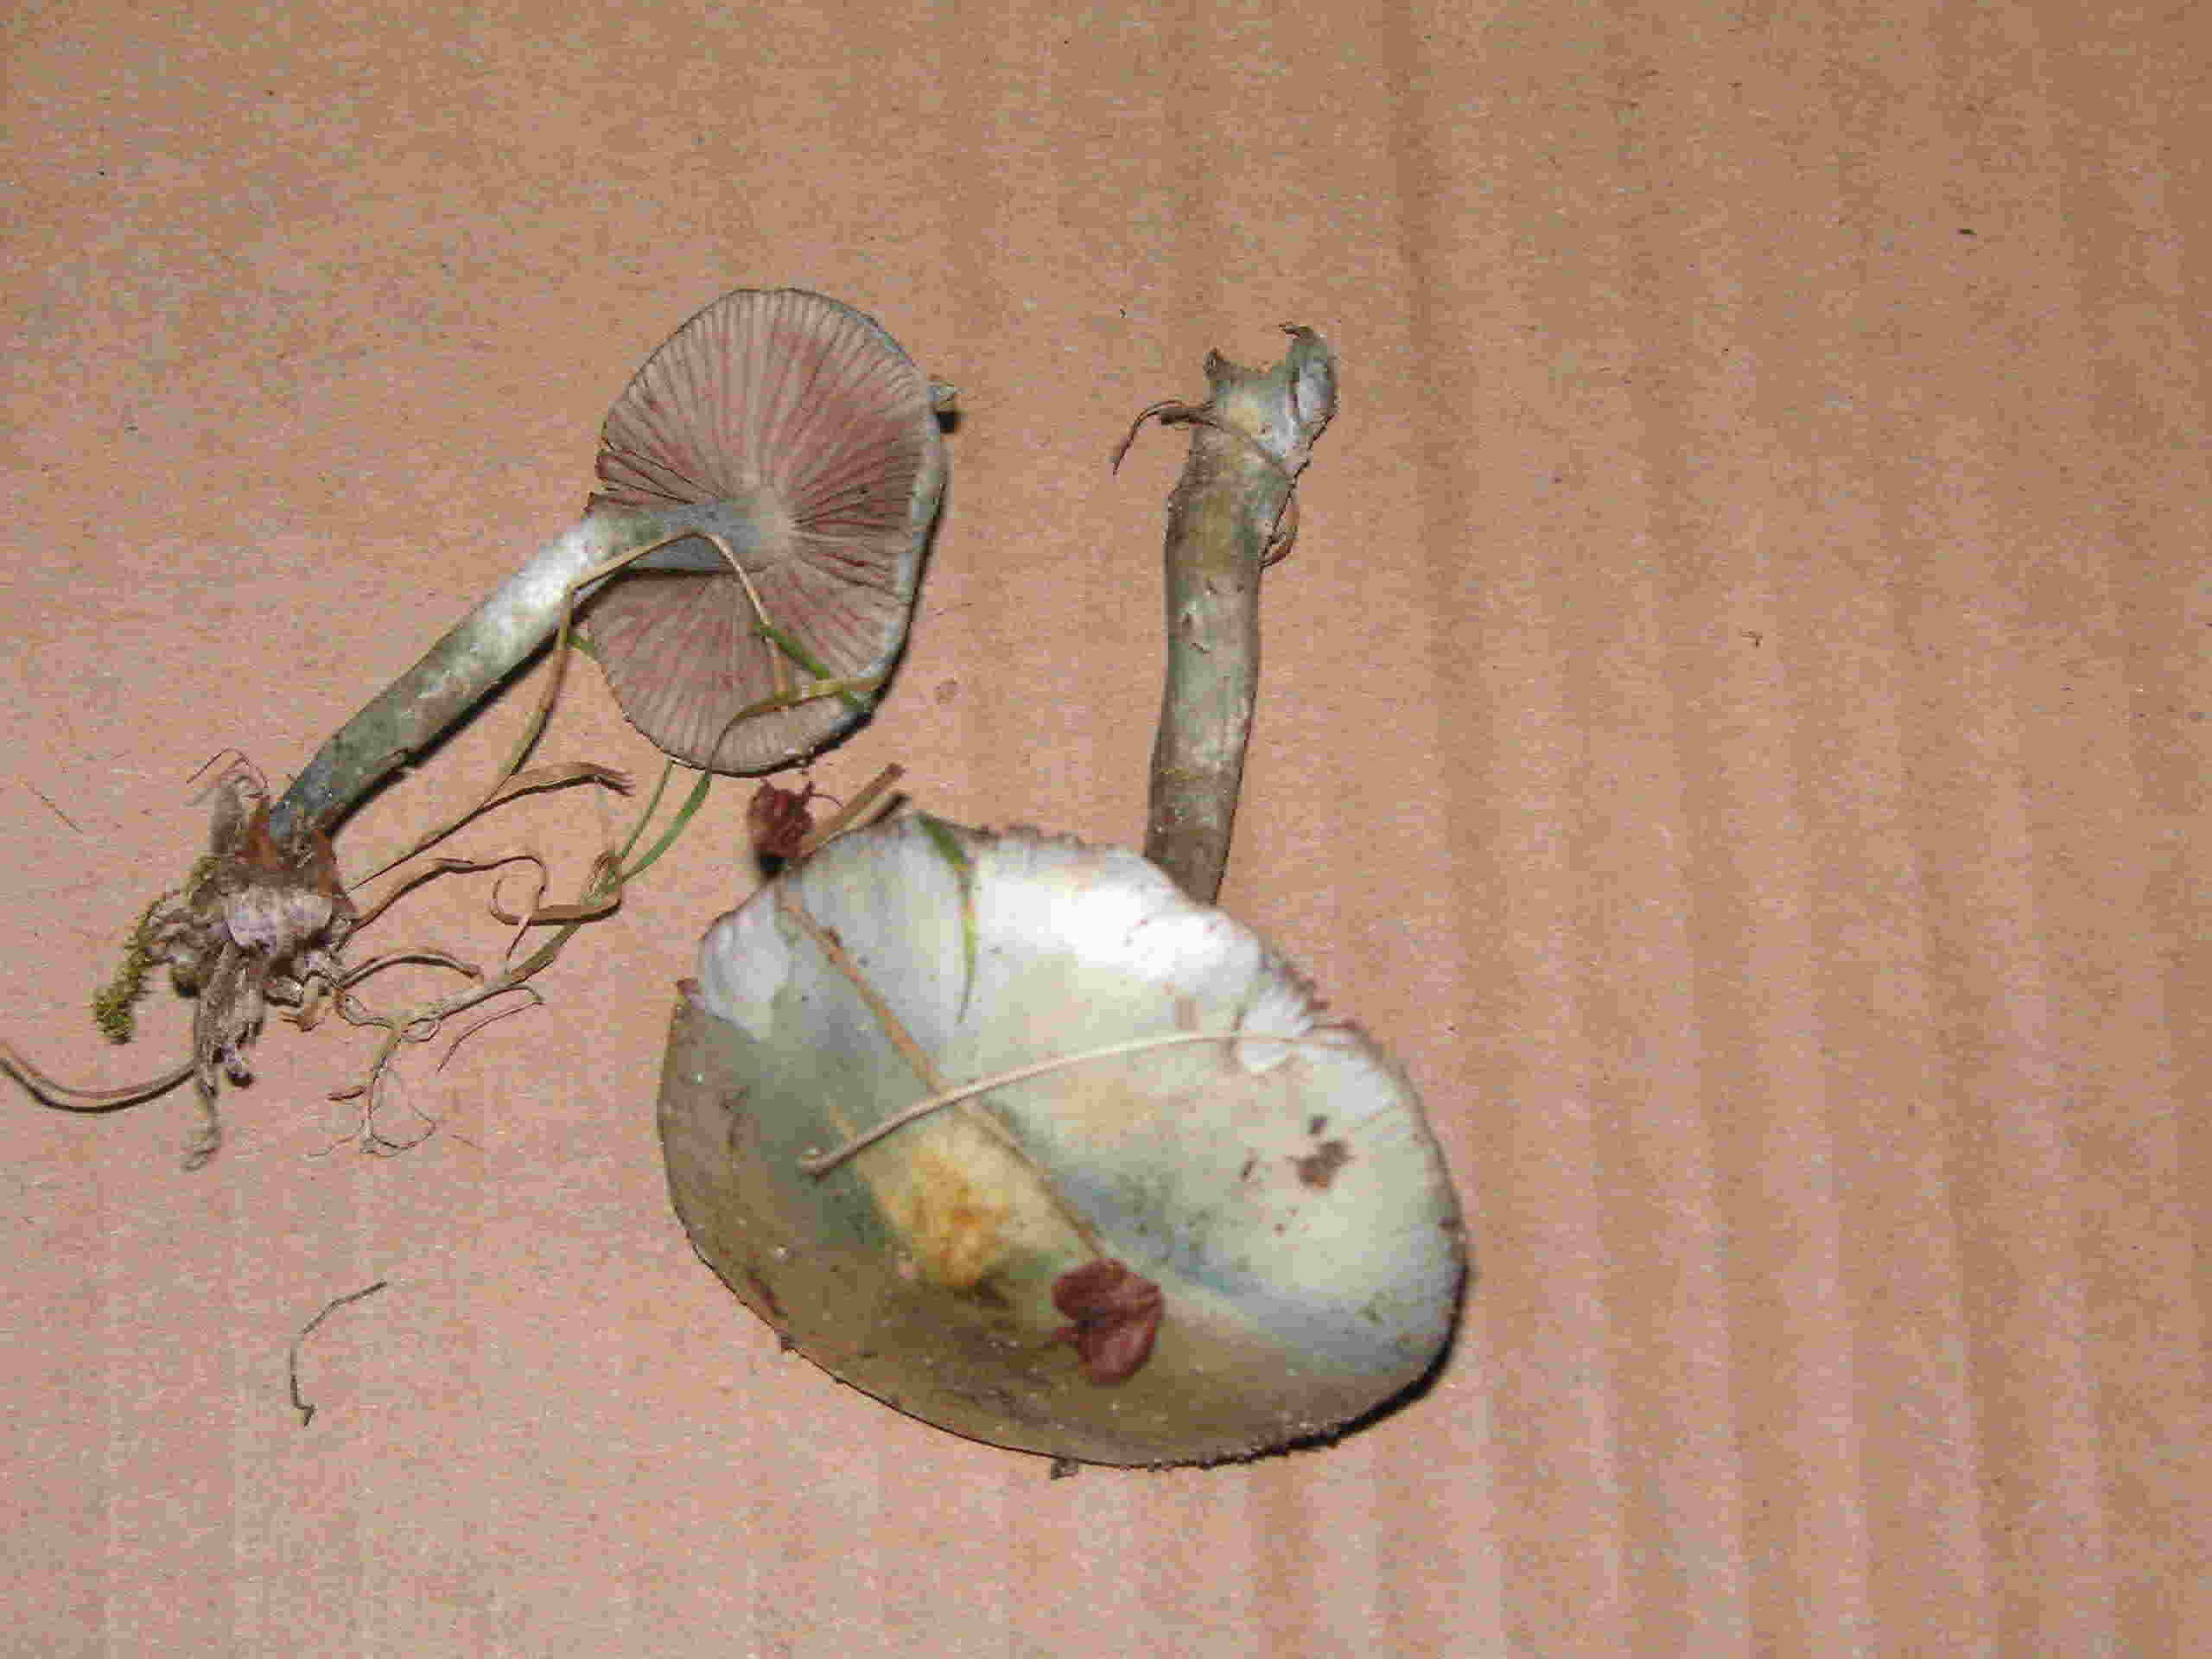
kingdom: Fungi
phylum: Basidiomycota
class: Agaricomycetes
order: Agaricales
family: Strophariaceae
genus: Stropharia
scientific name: Stropharia cyanea
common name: blågrøn bredblad
